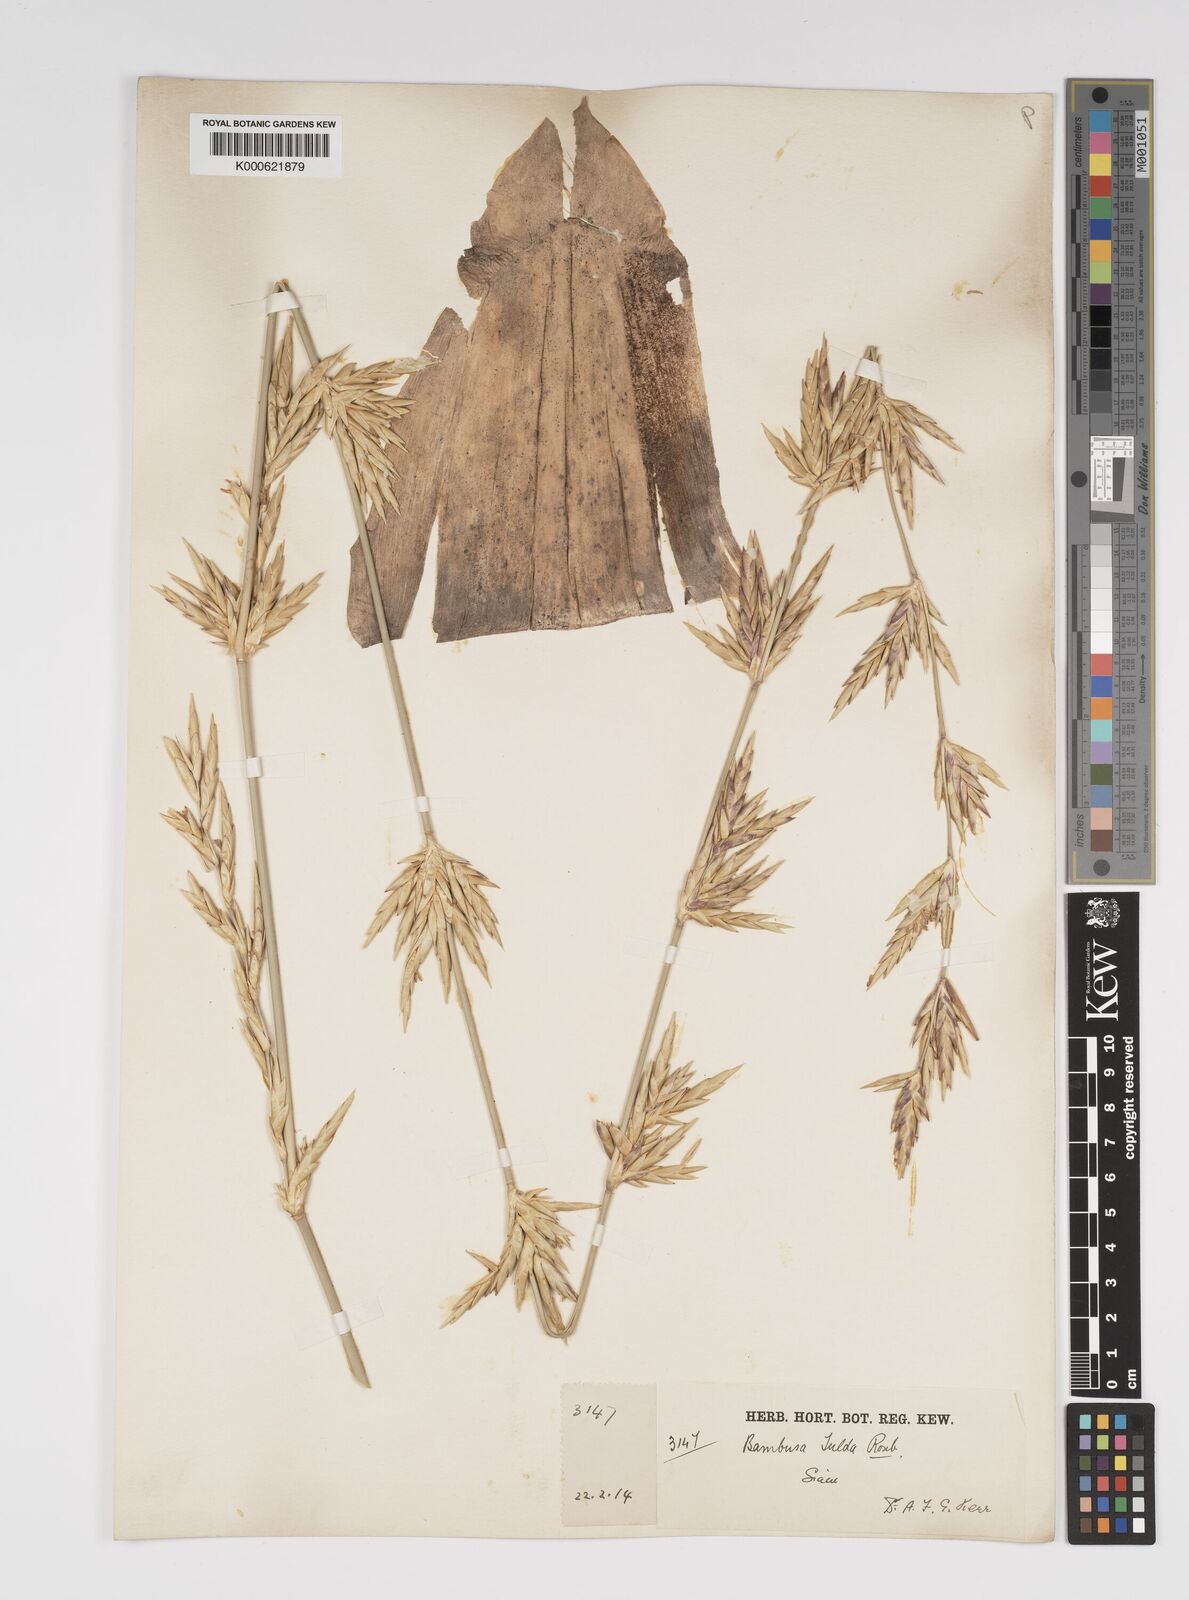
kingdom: Plantae
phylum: Tracheophyta
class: Liliopsida
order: Poales
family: Poaceae
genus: Bambusa
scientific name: Bambusa tulda
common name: Bengal bamboo
